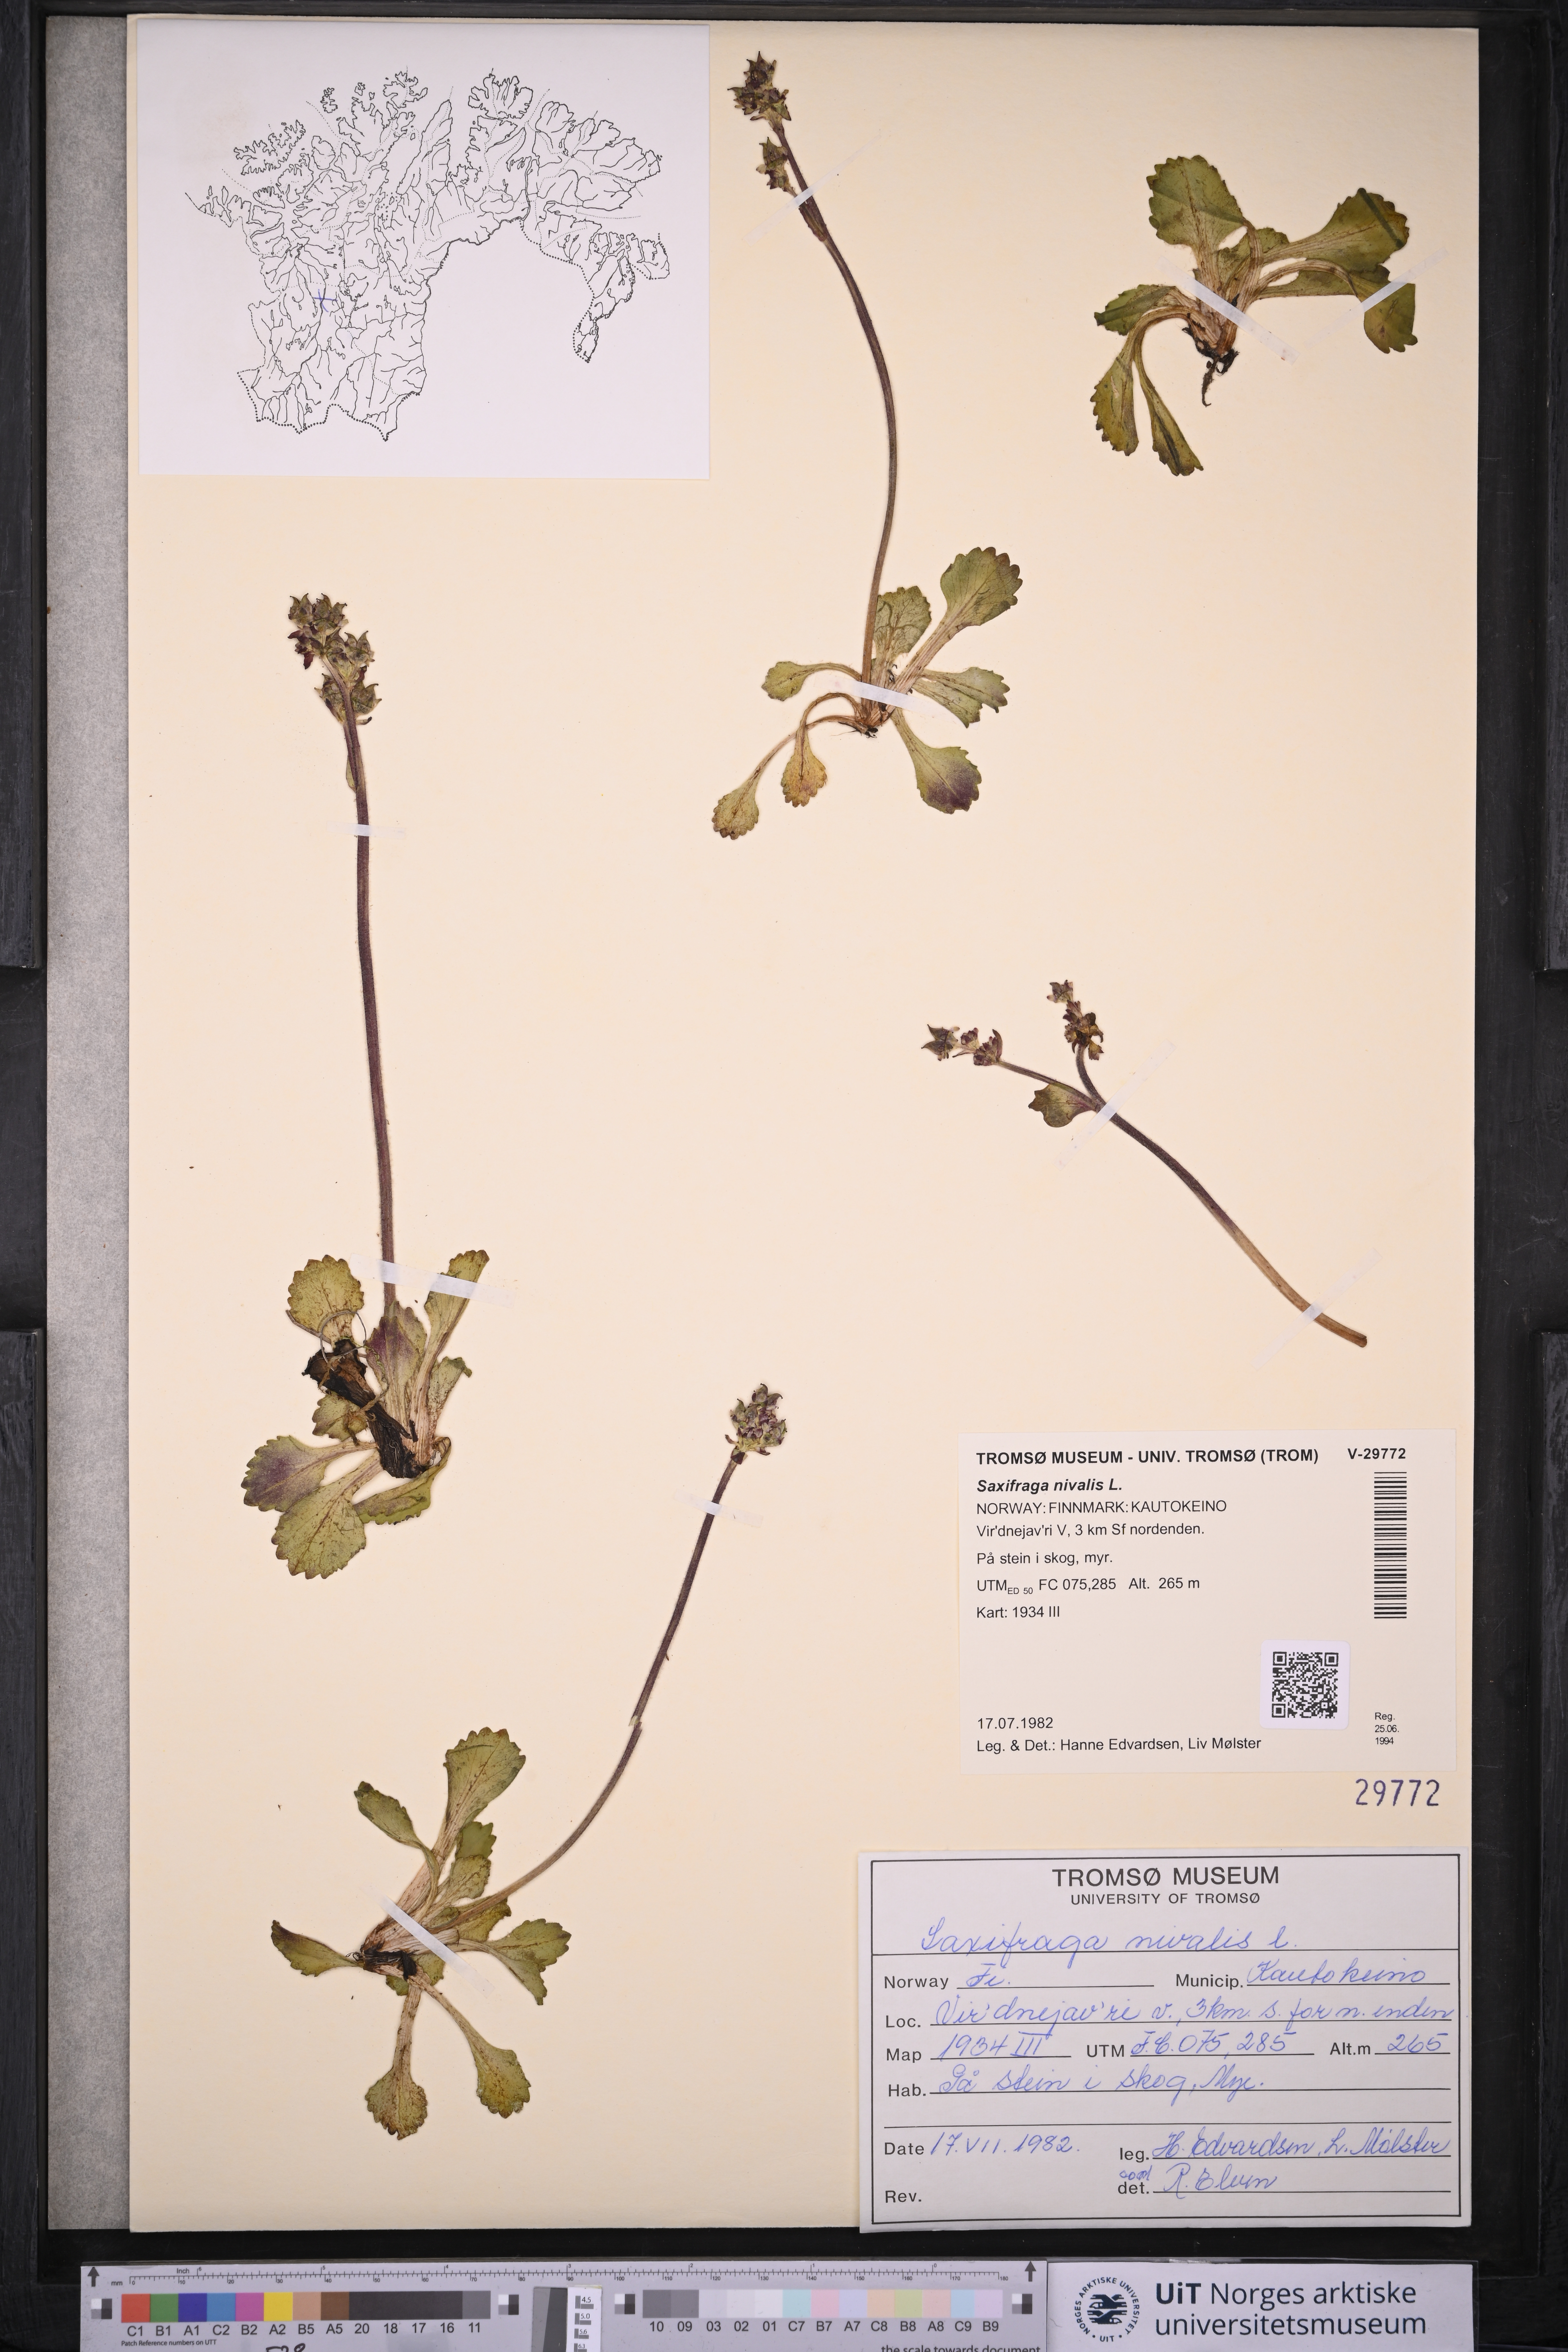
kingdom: Plantae
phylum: Tracheophyta
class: Magnoliopsida
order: Saxifragales
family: Saxifragaceae
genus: Micranthes
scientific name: Micranthes nivalis
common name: Alpine saxifrage
